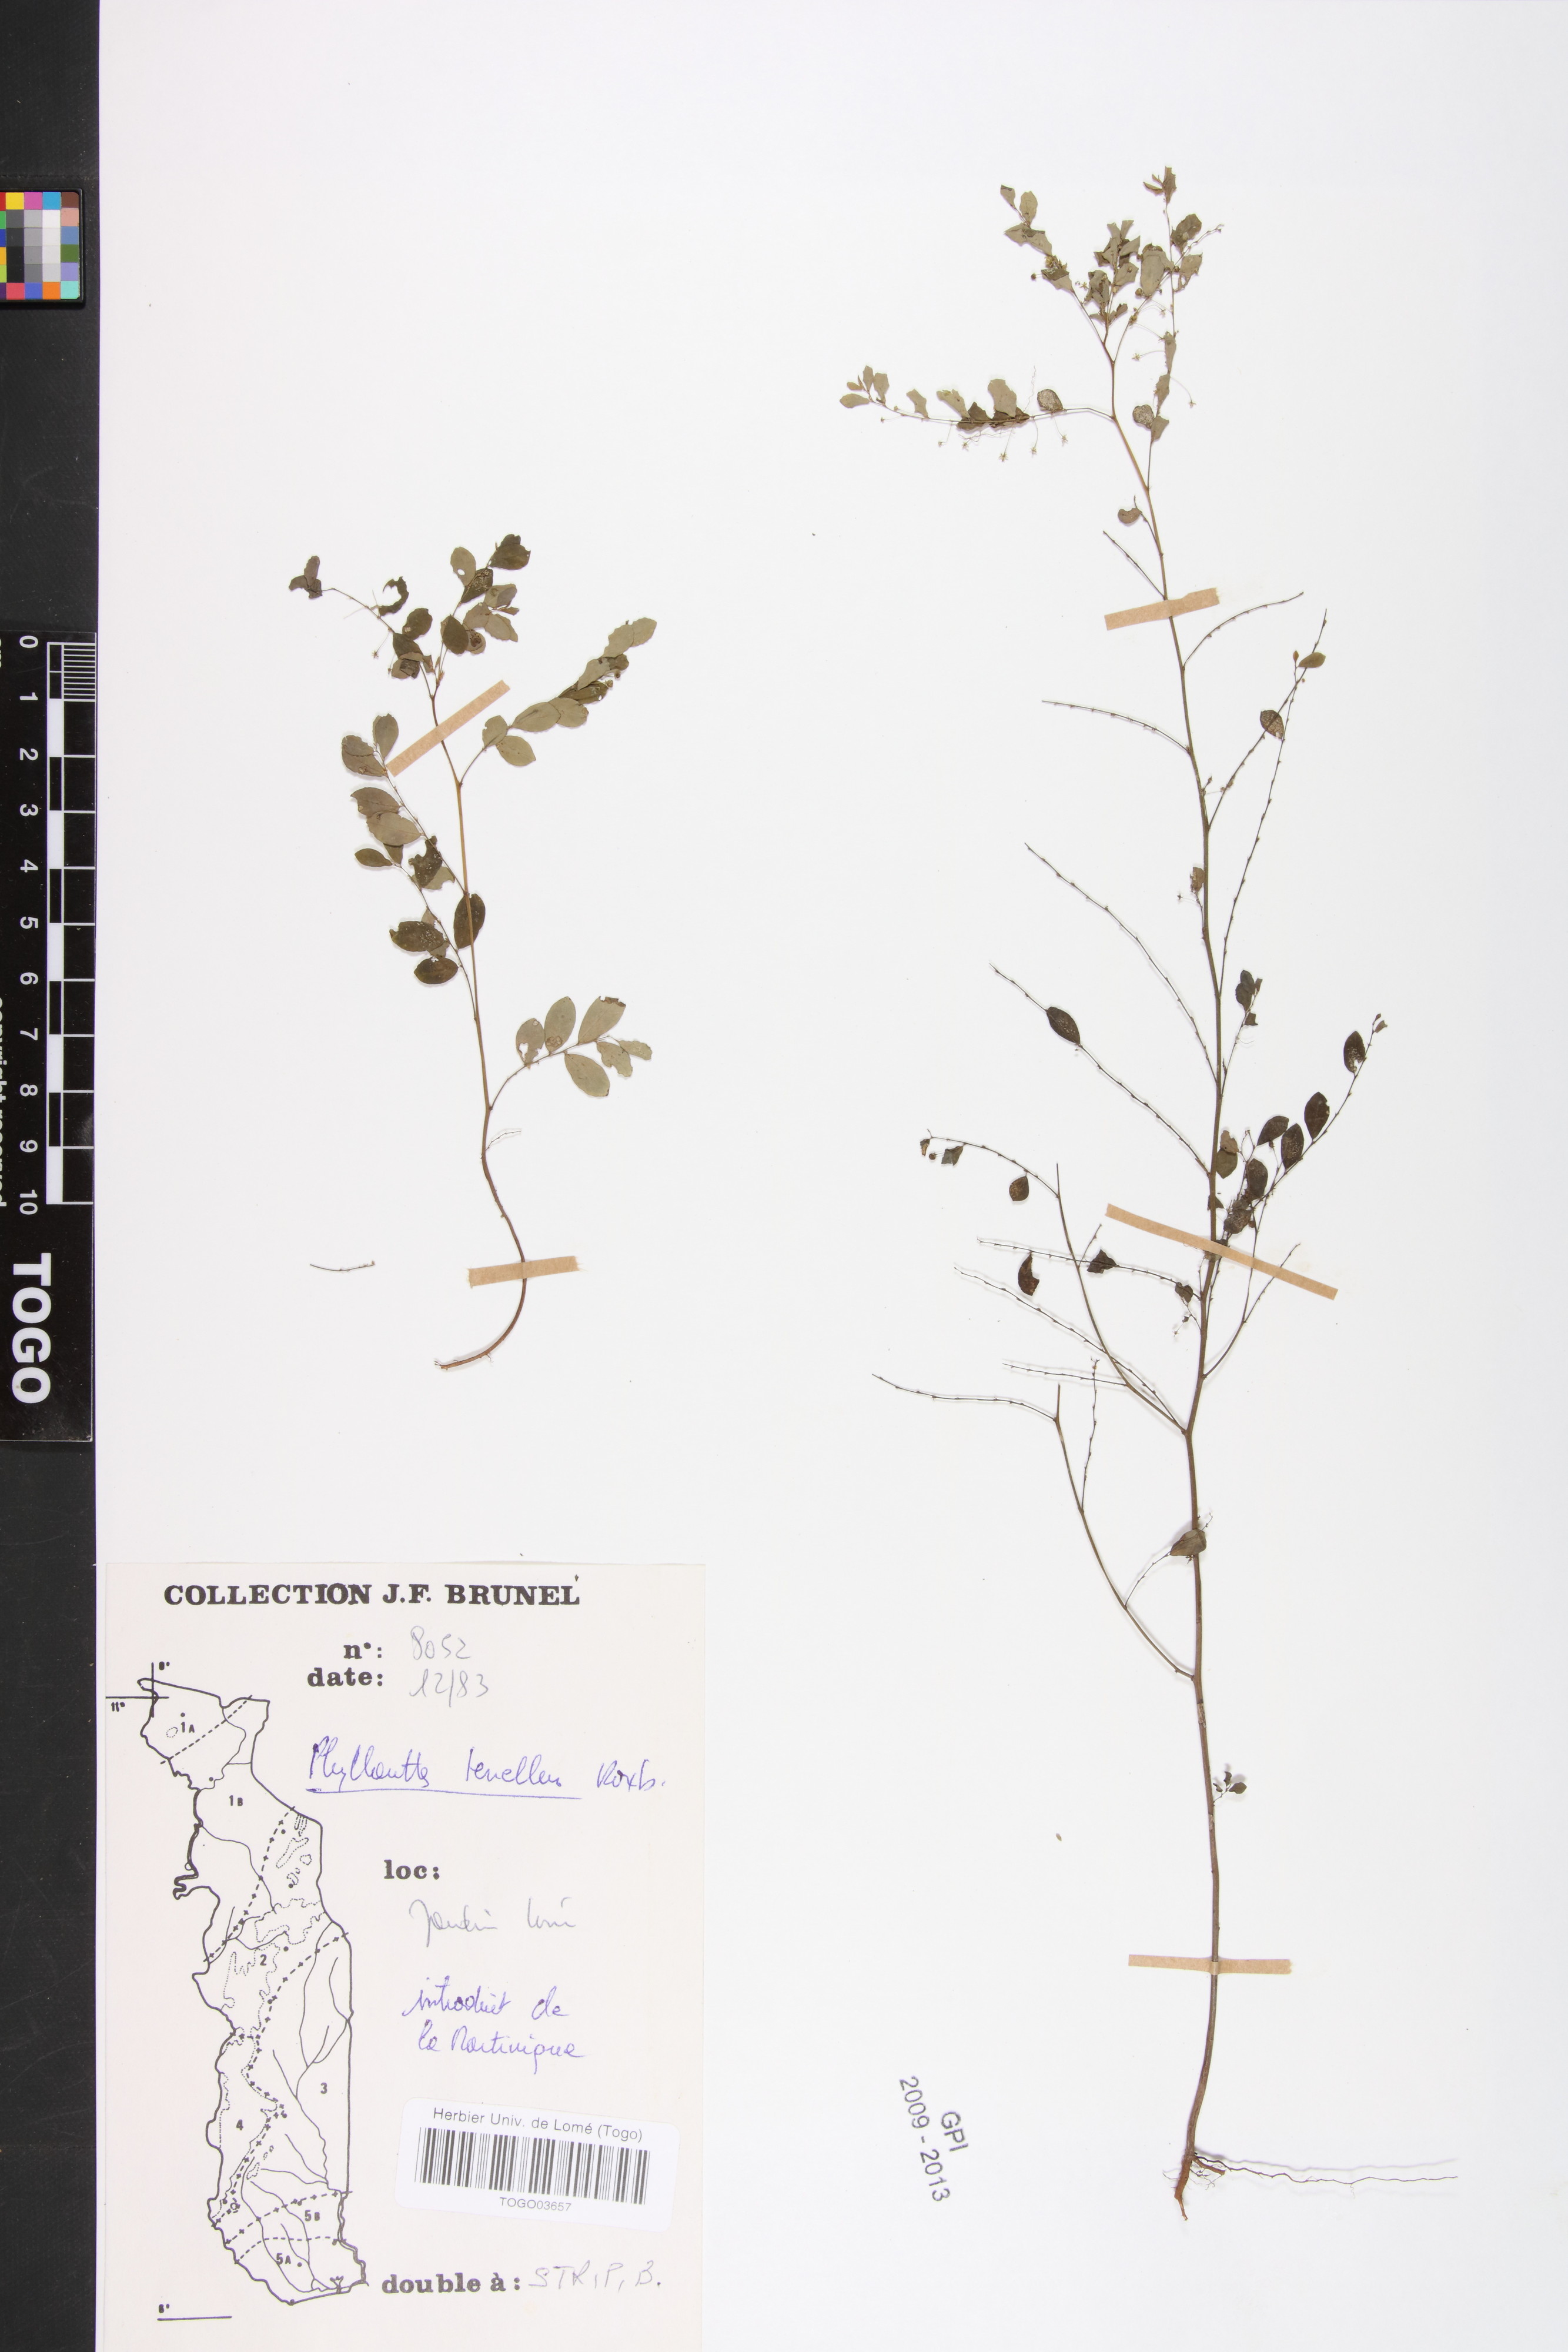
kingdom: Plantae
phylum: Tracheophyta
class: Magnoliopsida
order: Malpighiales
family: Phyllanthaceae
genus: Phyllanthus
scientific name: Phyllanthus tenellus
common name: Mascarene island leaf-flower
